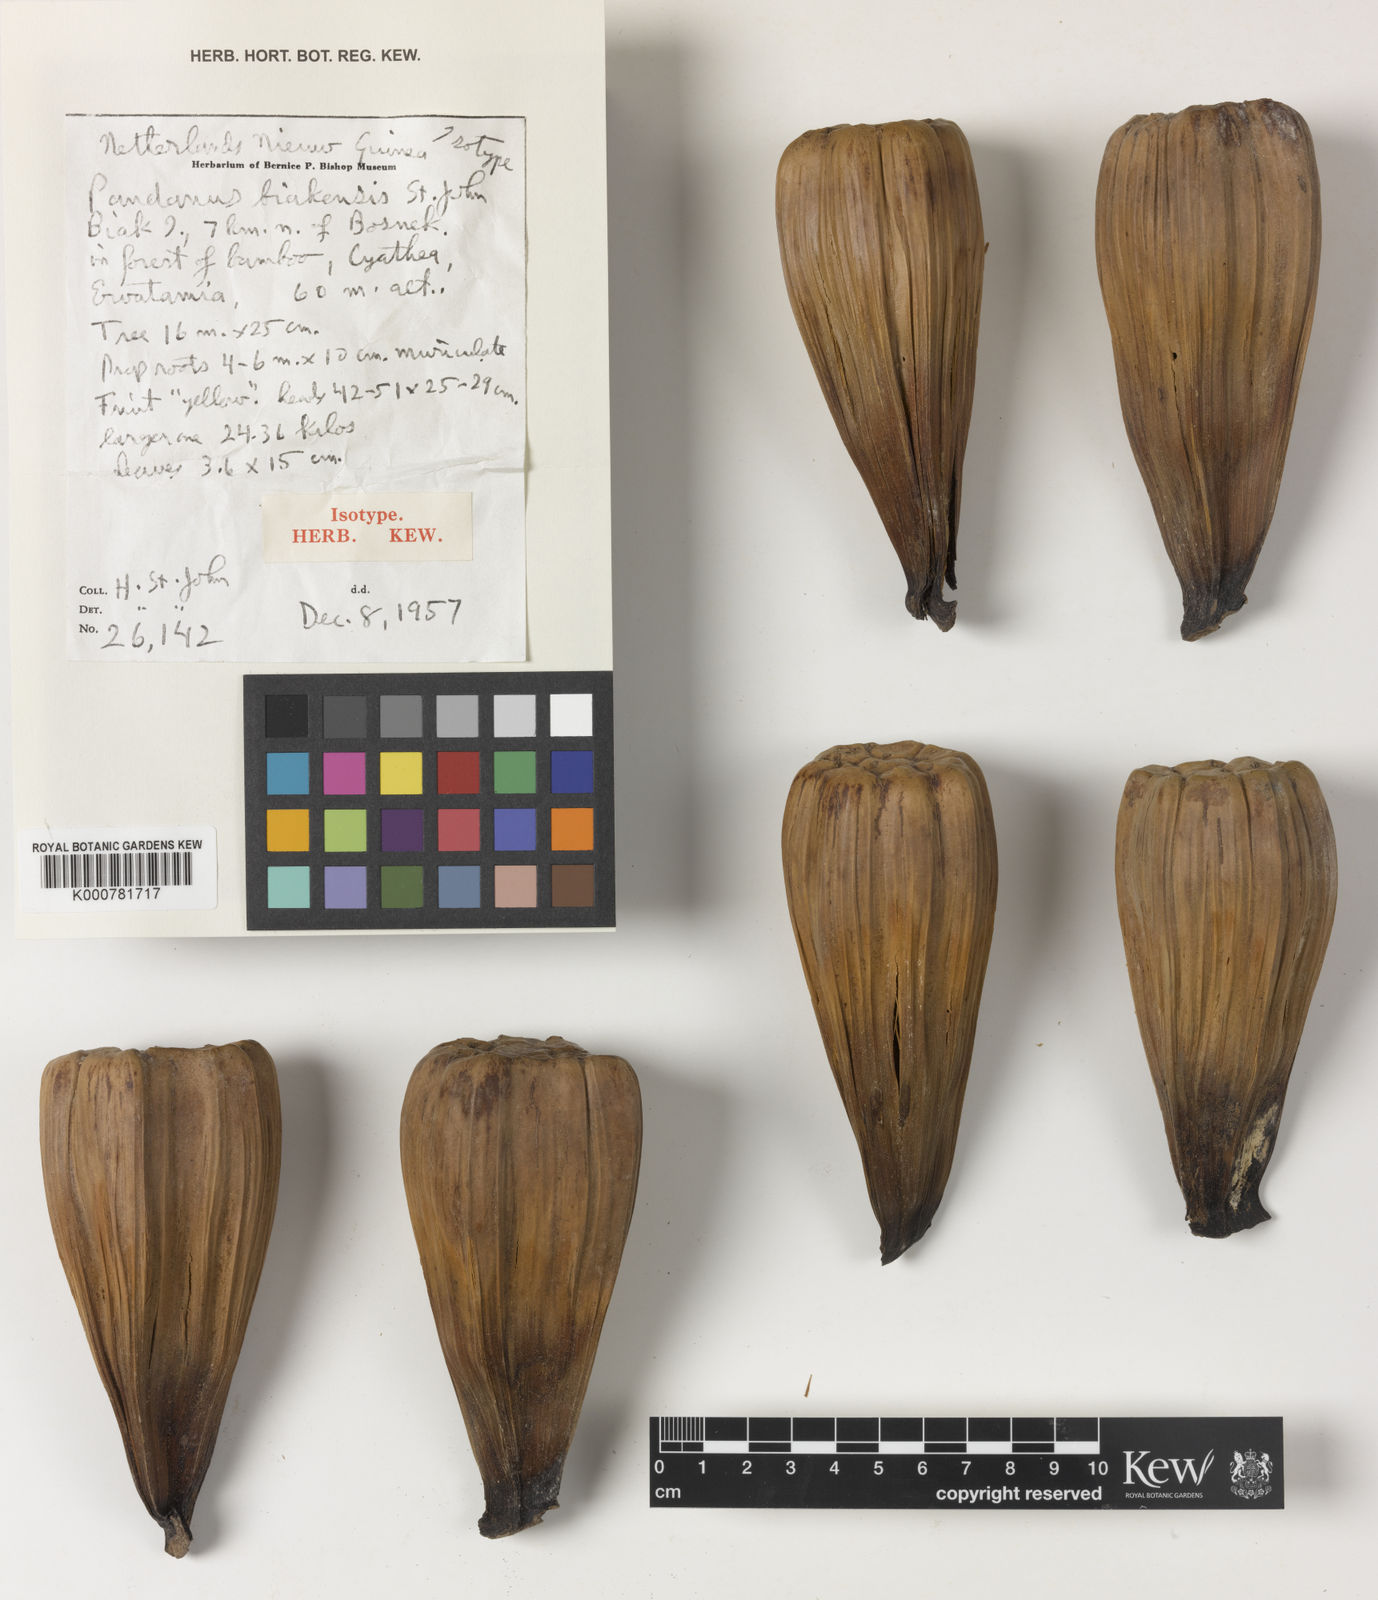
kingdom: Plantae
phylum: Tracheophyta
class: Liliopsida
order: Pandanales
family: Pandanaceae
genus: Pandanus
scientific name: Pandanus papuanus
